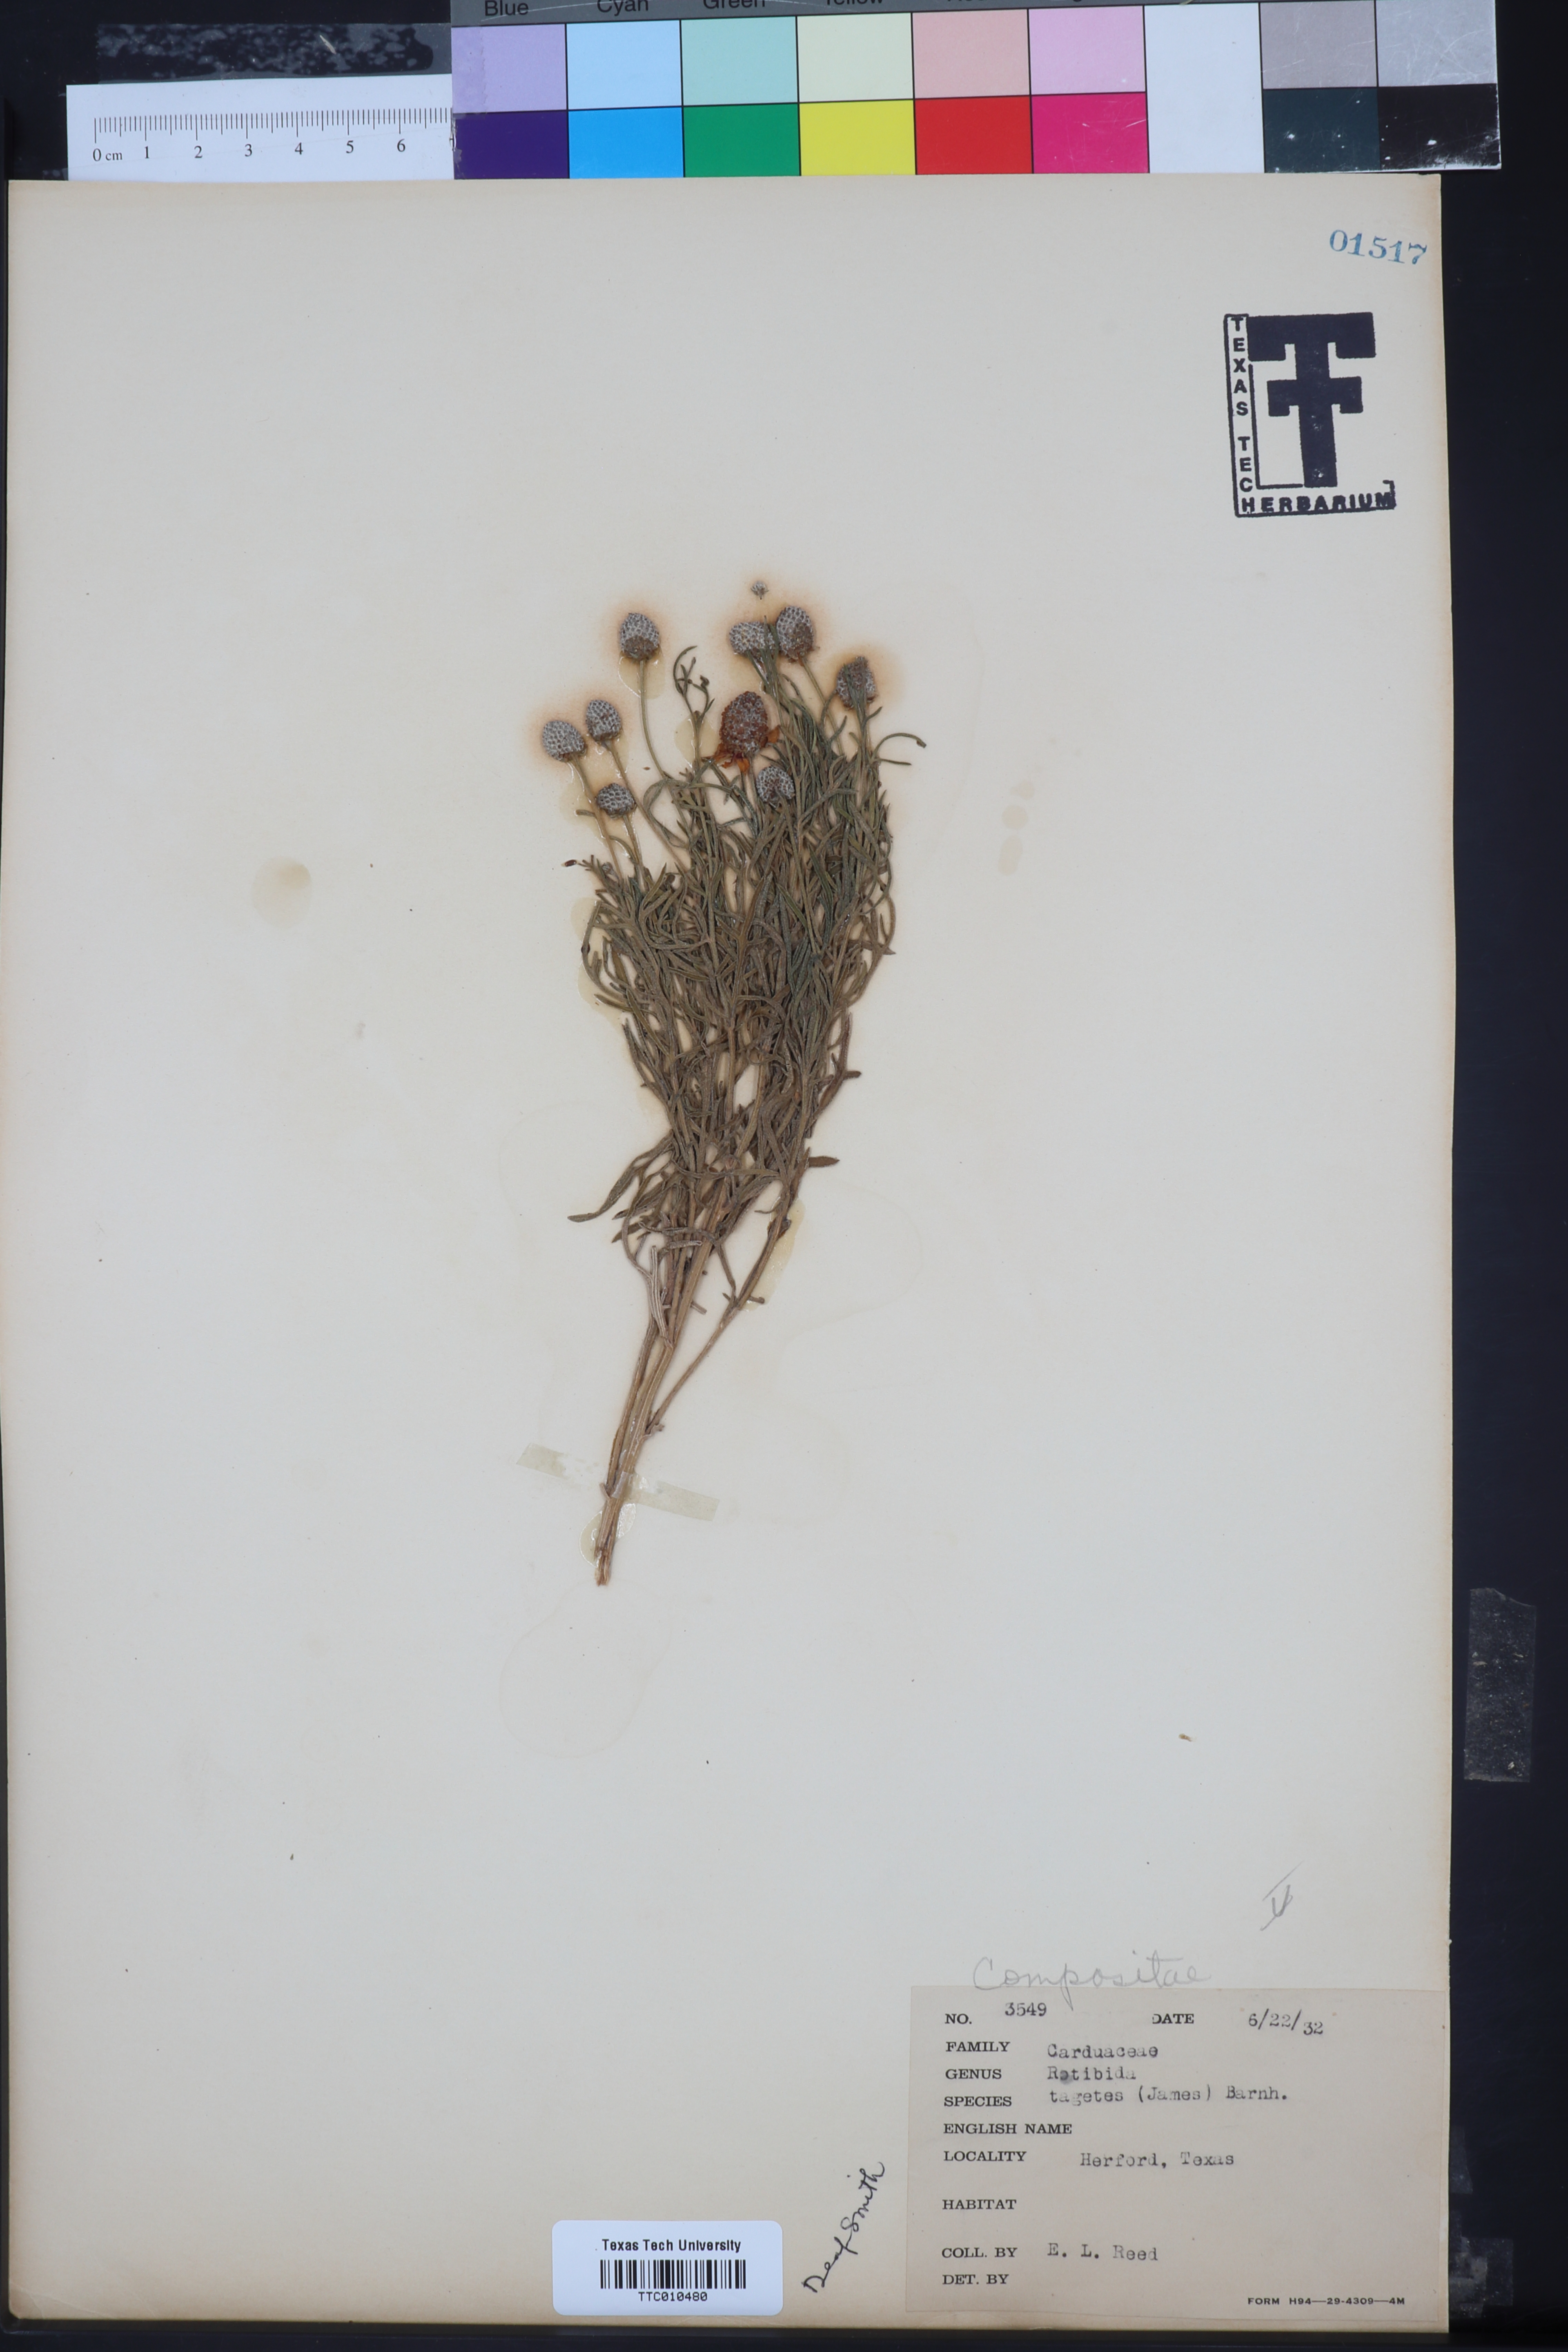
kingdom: Plantae
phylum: Tracheophyta
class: Magnoliopsida
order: Asterales
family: Asteraceae
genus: Ratibida
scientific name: Ratibida tagetes
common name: Green mexican-hat
